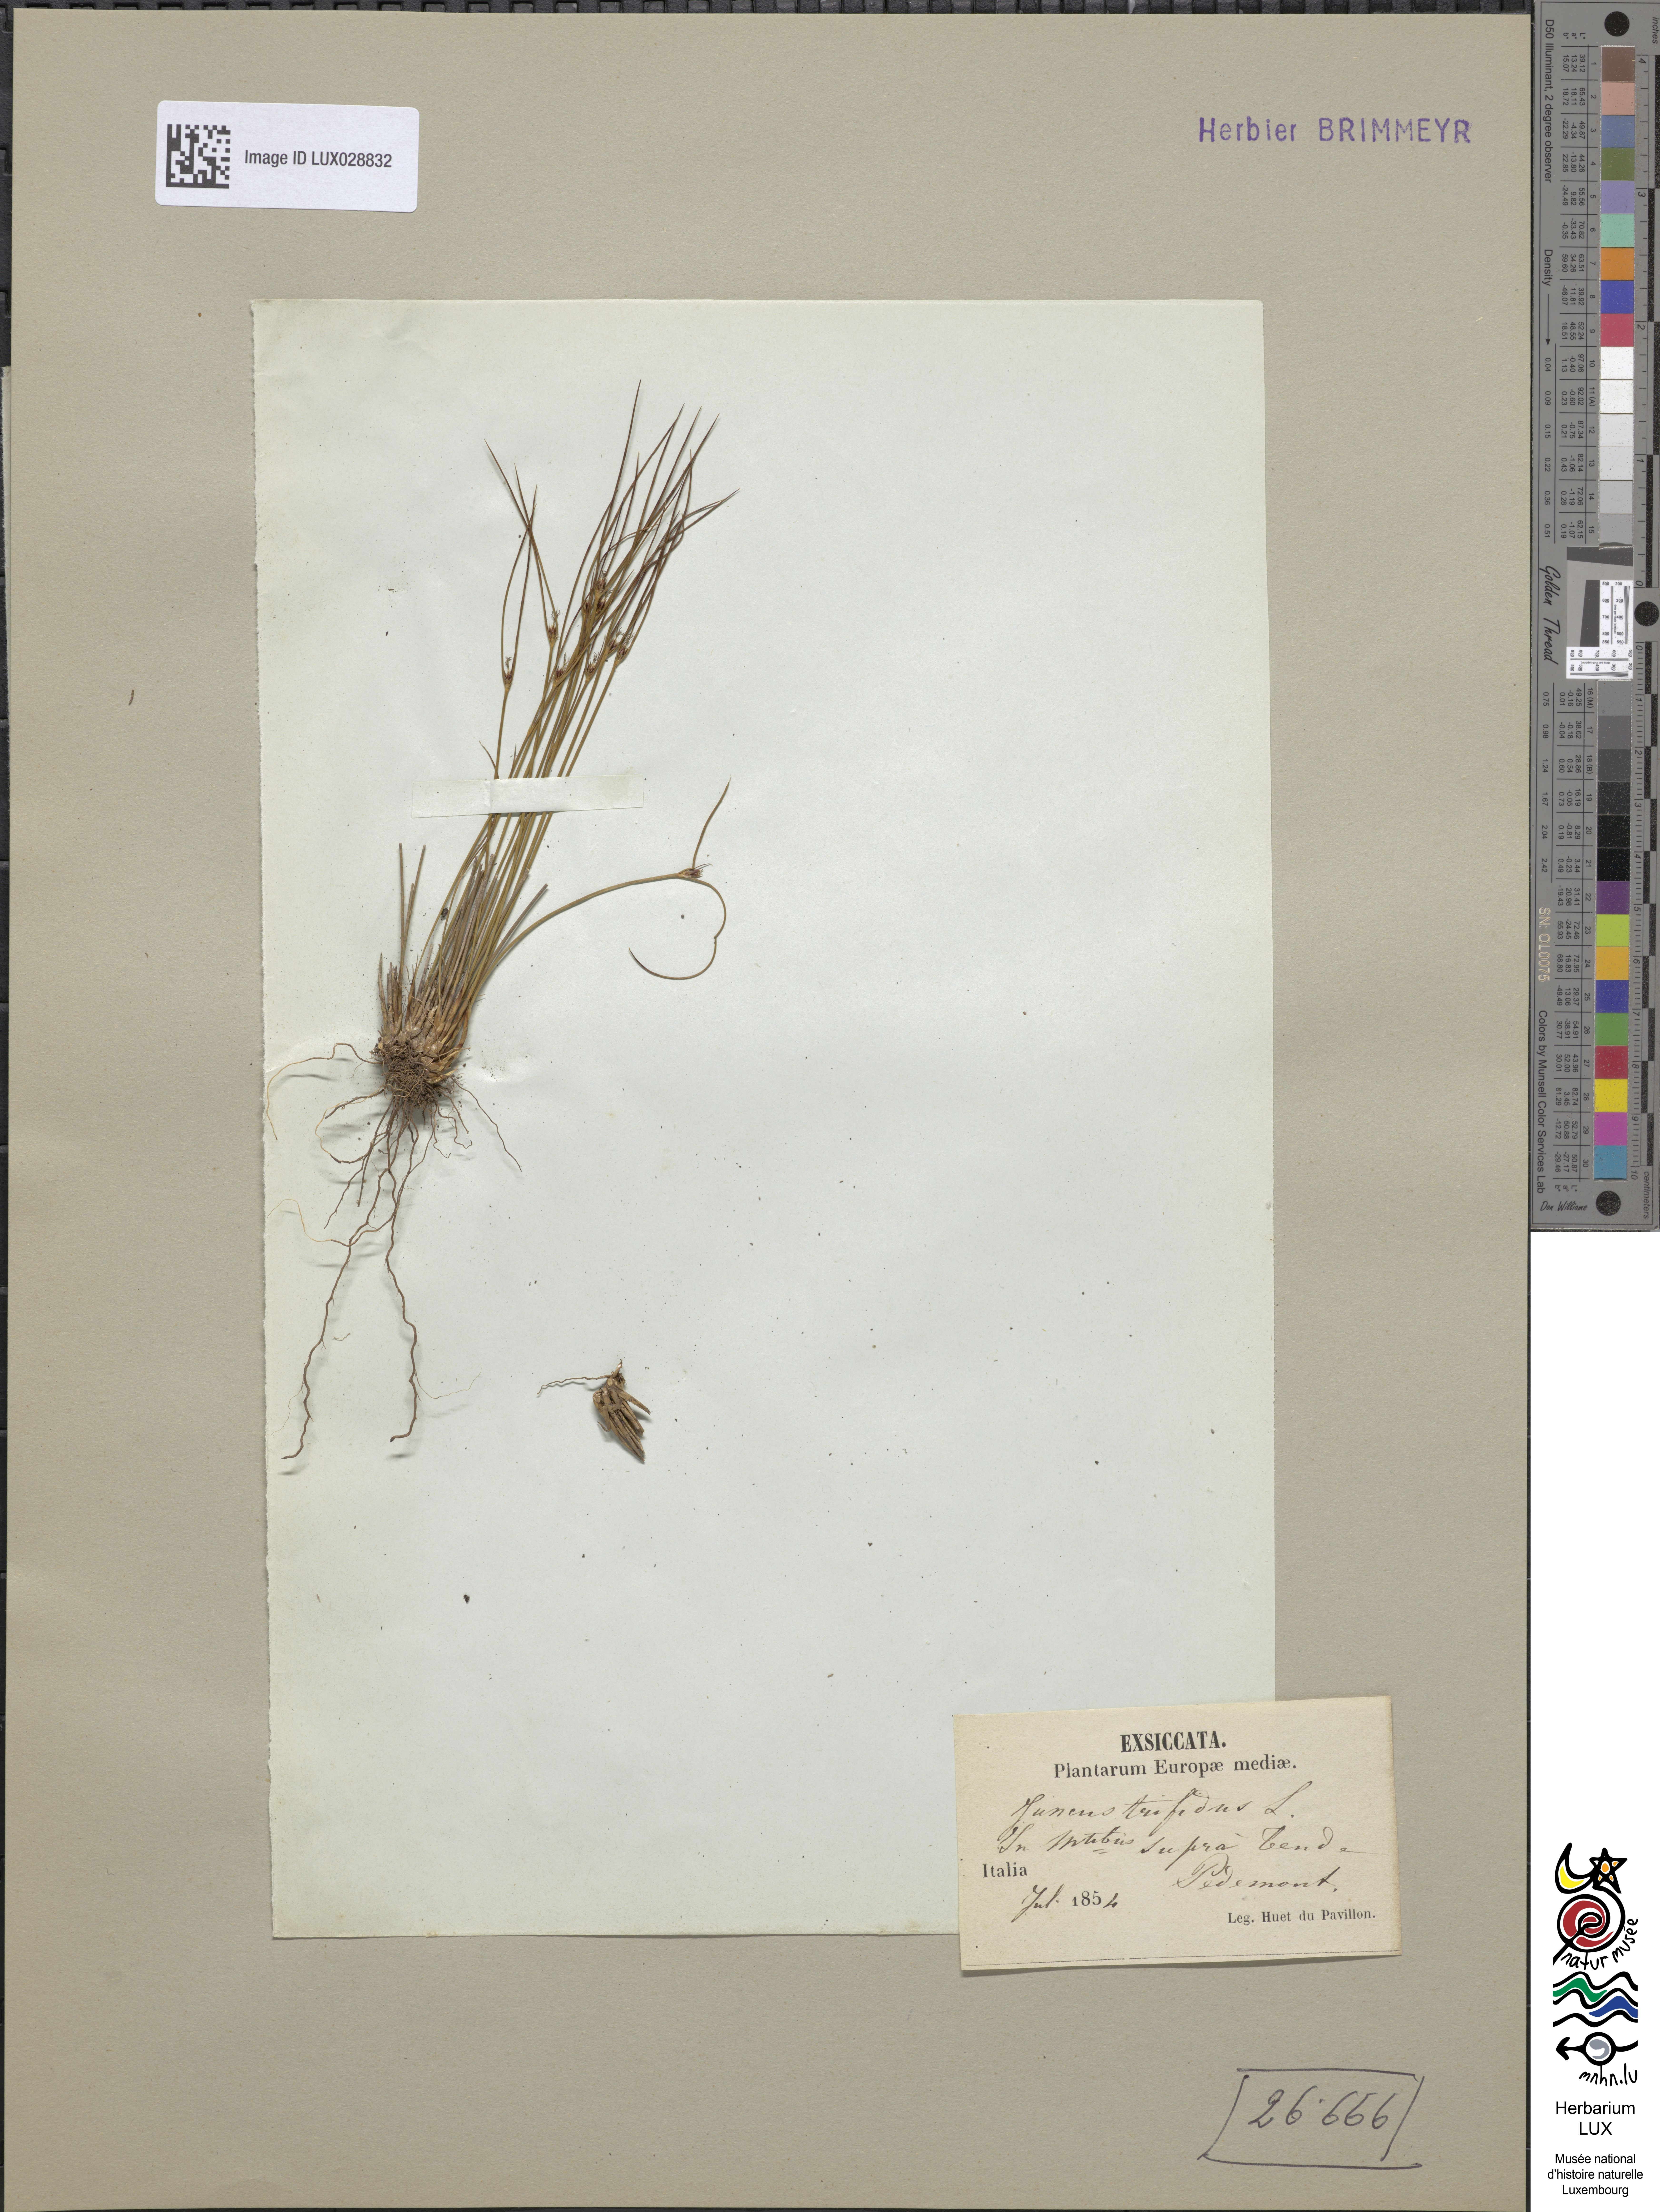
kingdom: Plantae
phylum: Tracheophyta
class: Liliopsida
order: Poales
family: Juncaceae
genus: Oreojuncus
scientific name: Oreojuncus trifidus
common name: Highland rush
